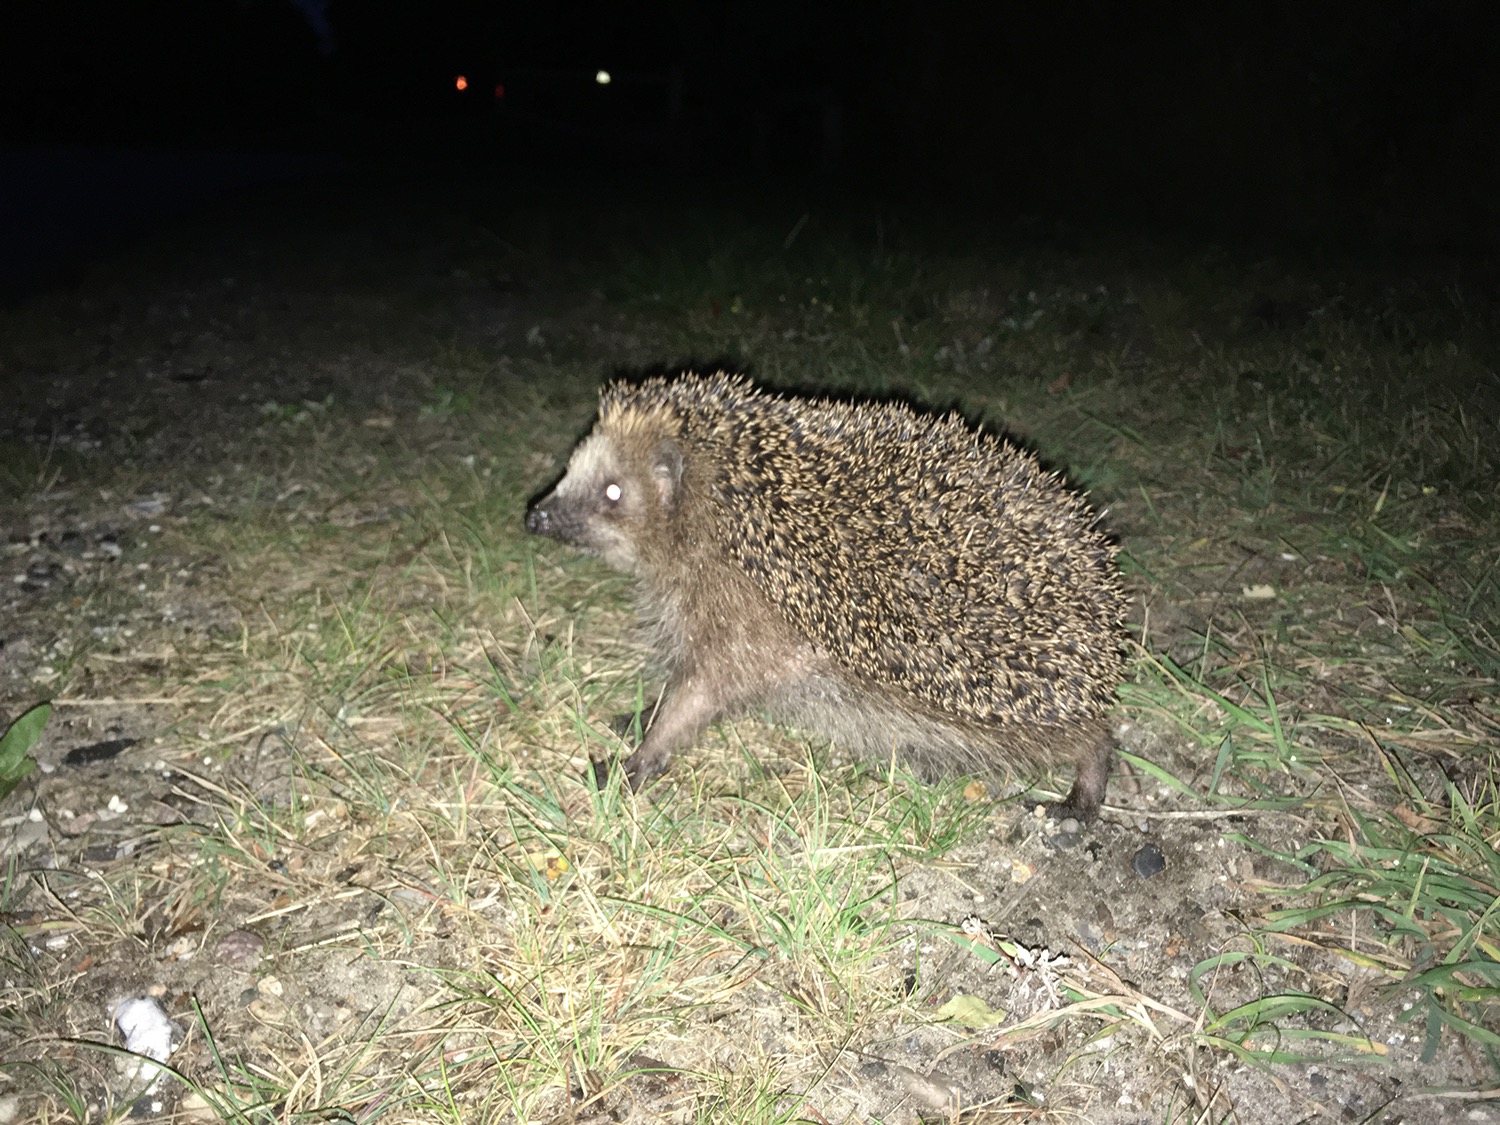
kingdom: Animalia
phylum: Chordata
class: Mammalia
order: Erinaceomorpha
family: Erinaceidae
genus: Erinaceus
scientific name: Erinaceus europaeus
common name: Pindsvin
